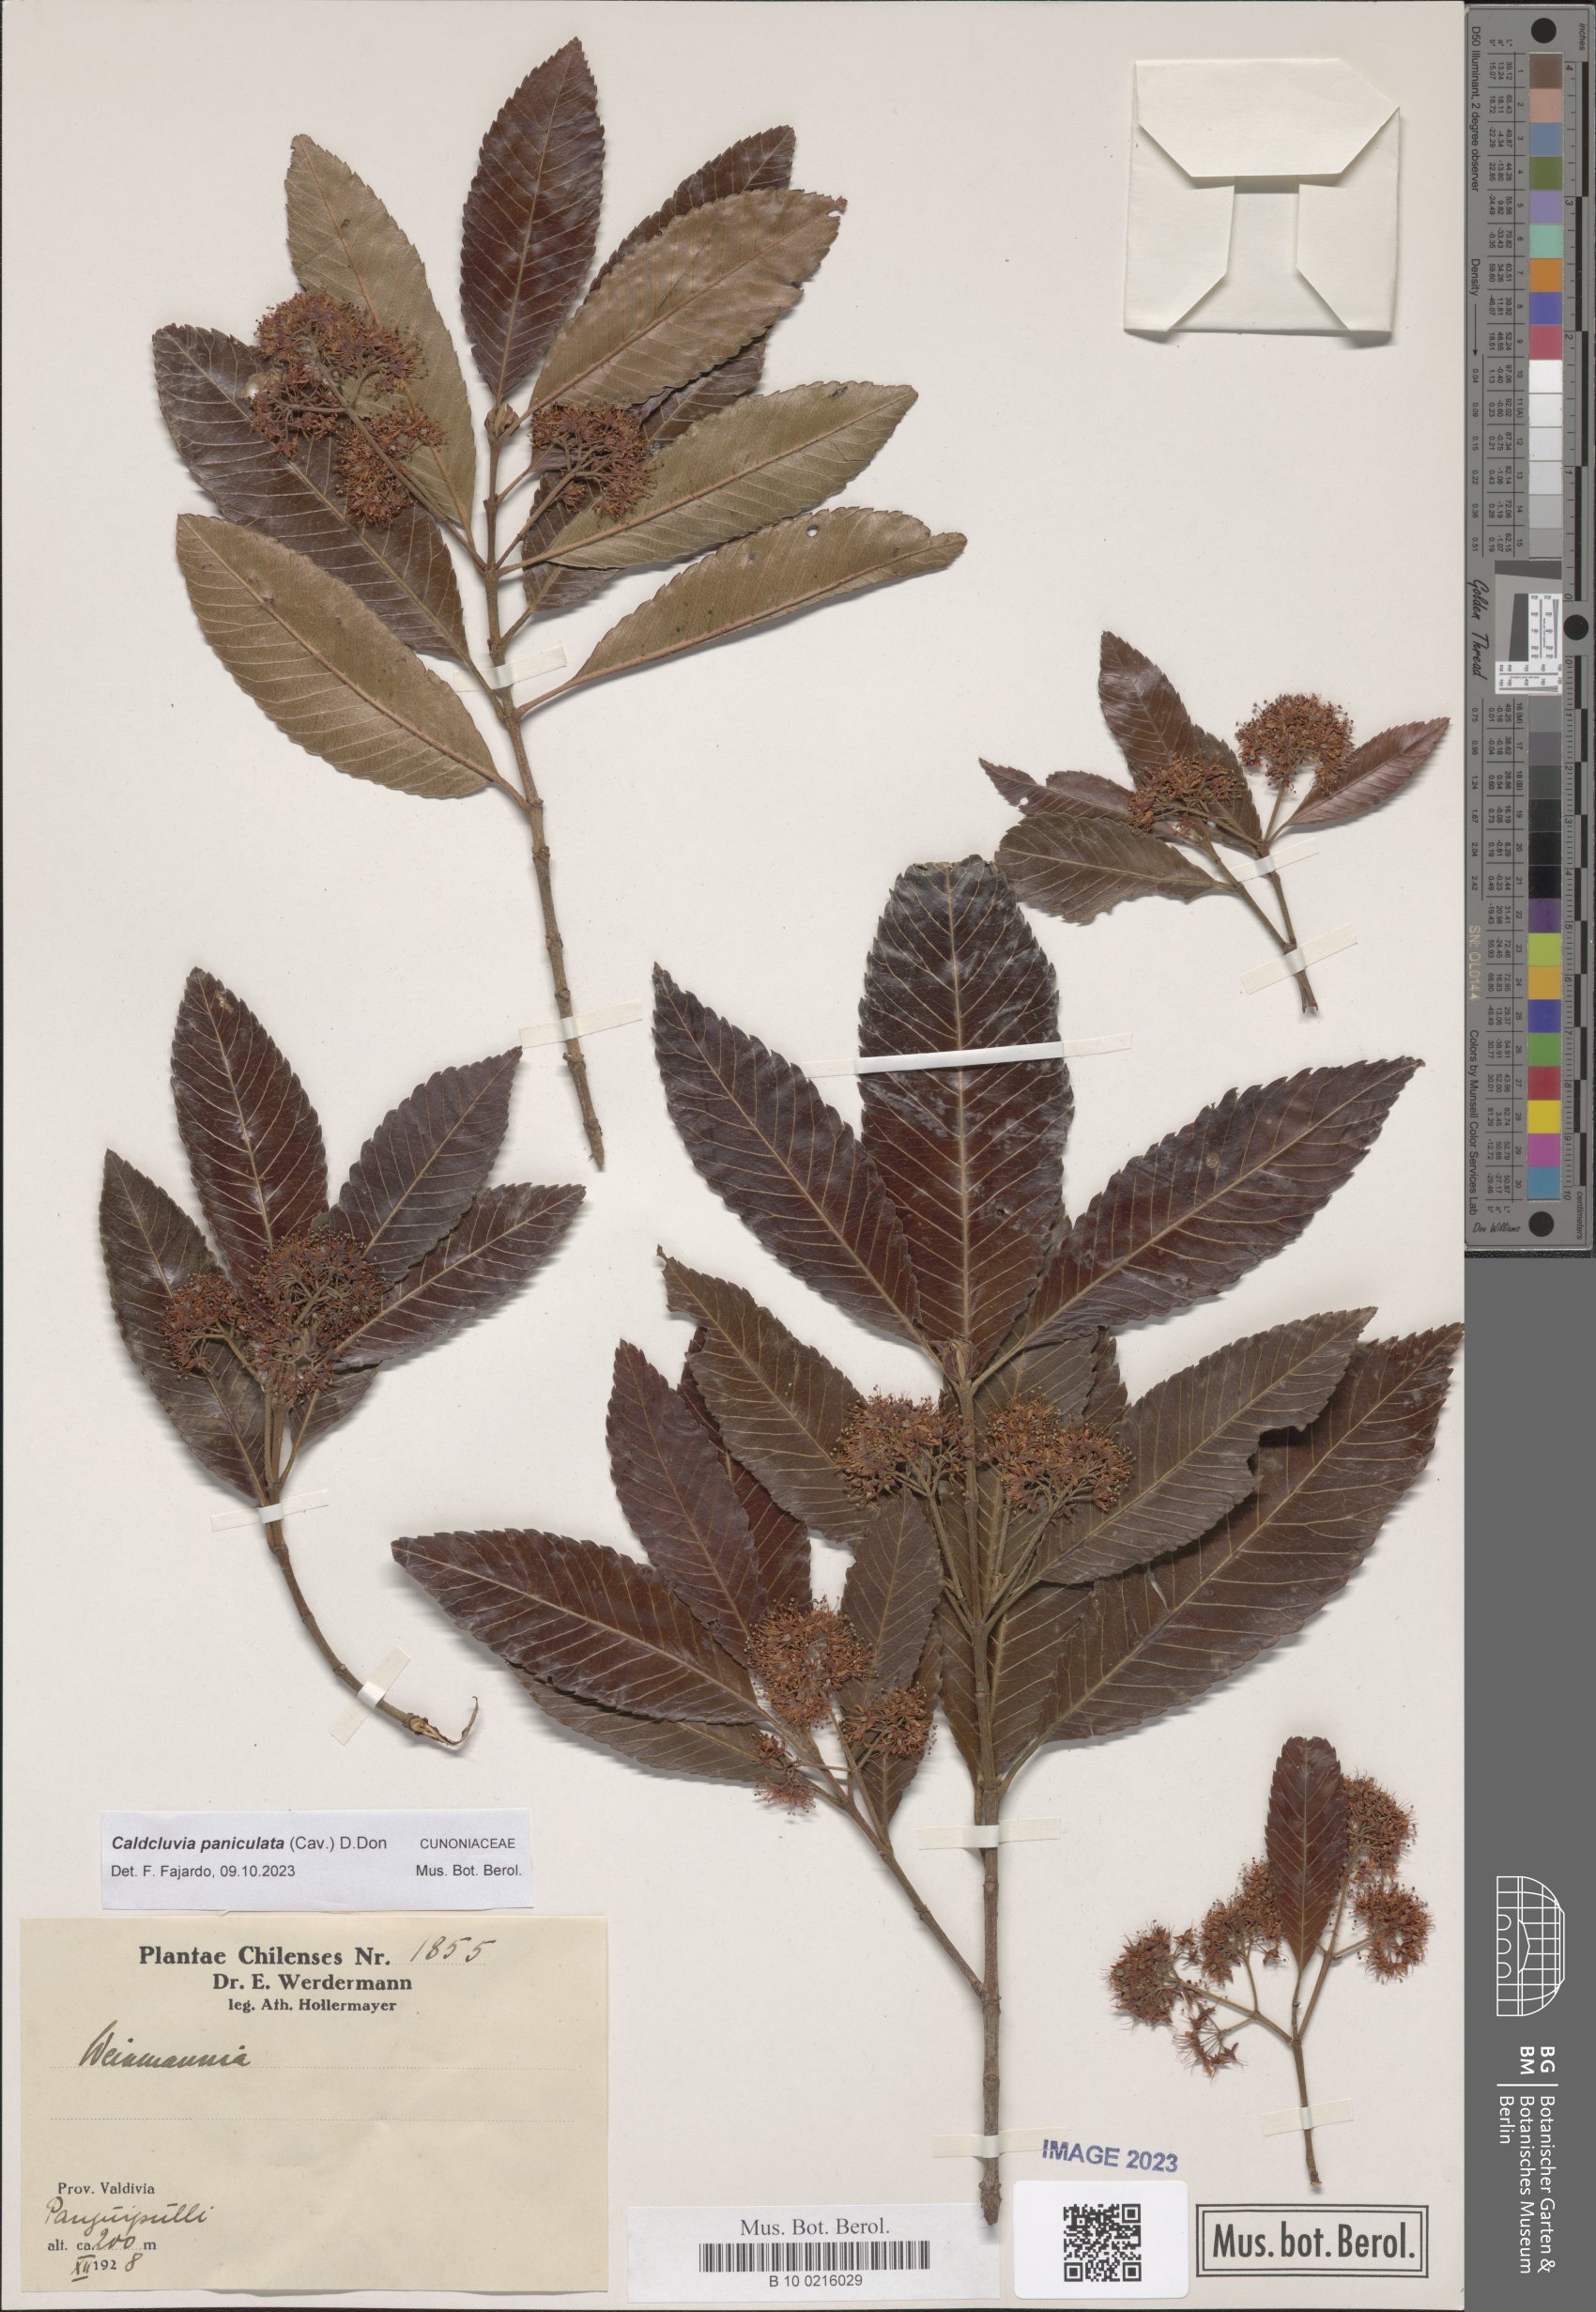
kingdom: Plantae
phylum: Tracheophyta
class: Magnoliopsida
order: Oxalidales
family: Cunoniaceae
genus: Caldcluvia
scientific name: Caldcluvia paniculata
